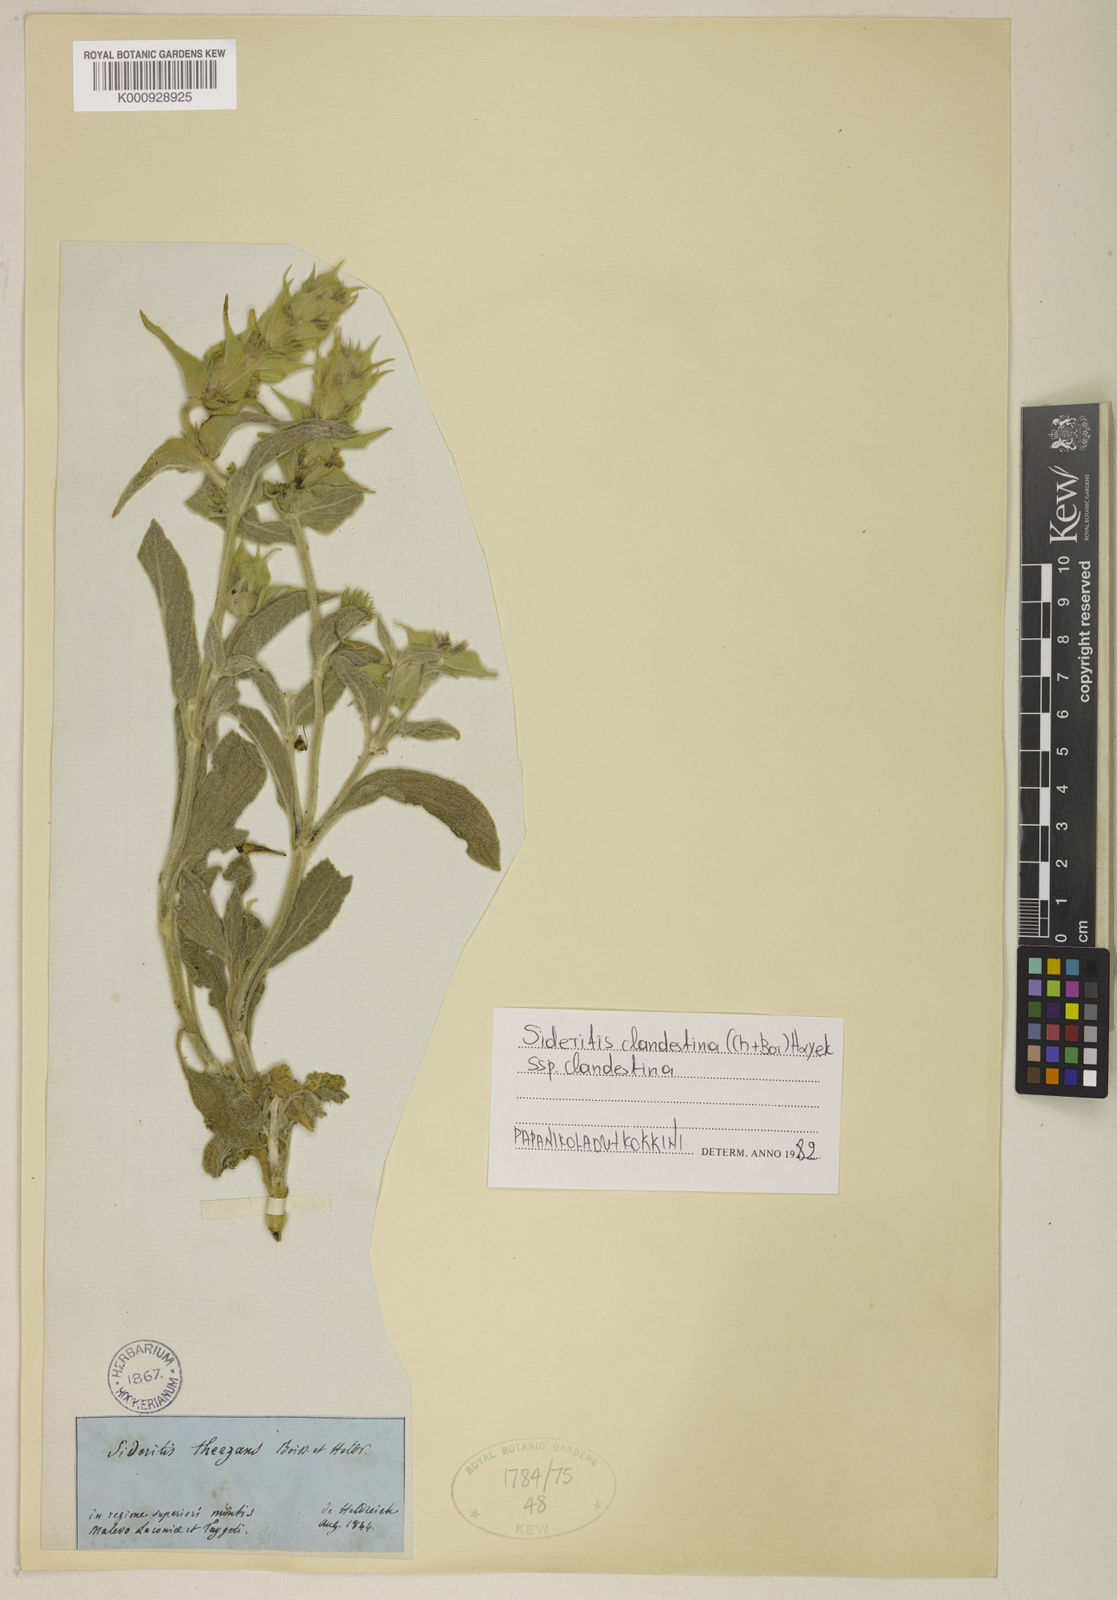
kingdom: Plantae
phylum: Tracheophyta
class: Magnoliopsida
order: Lamiales
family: Lamiaceae
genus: Sideritis
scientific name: Sideritis clandestina
